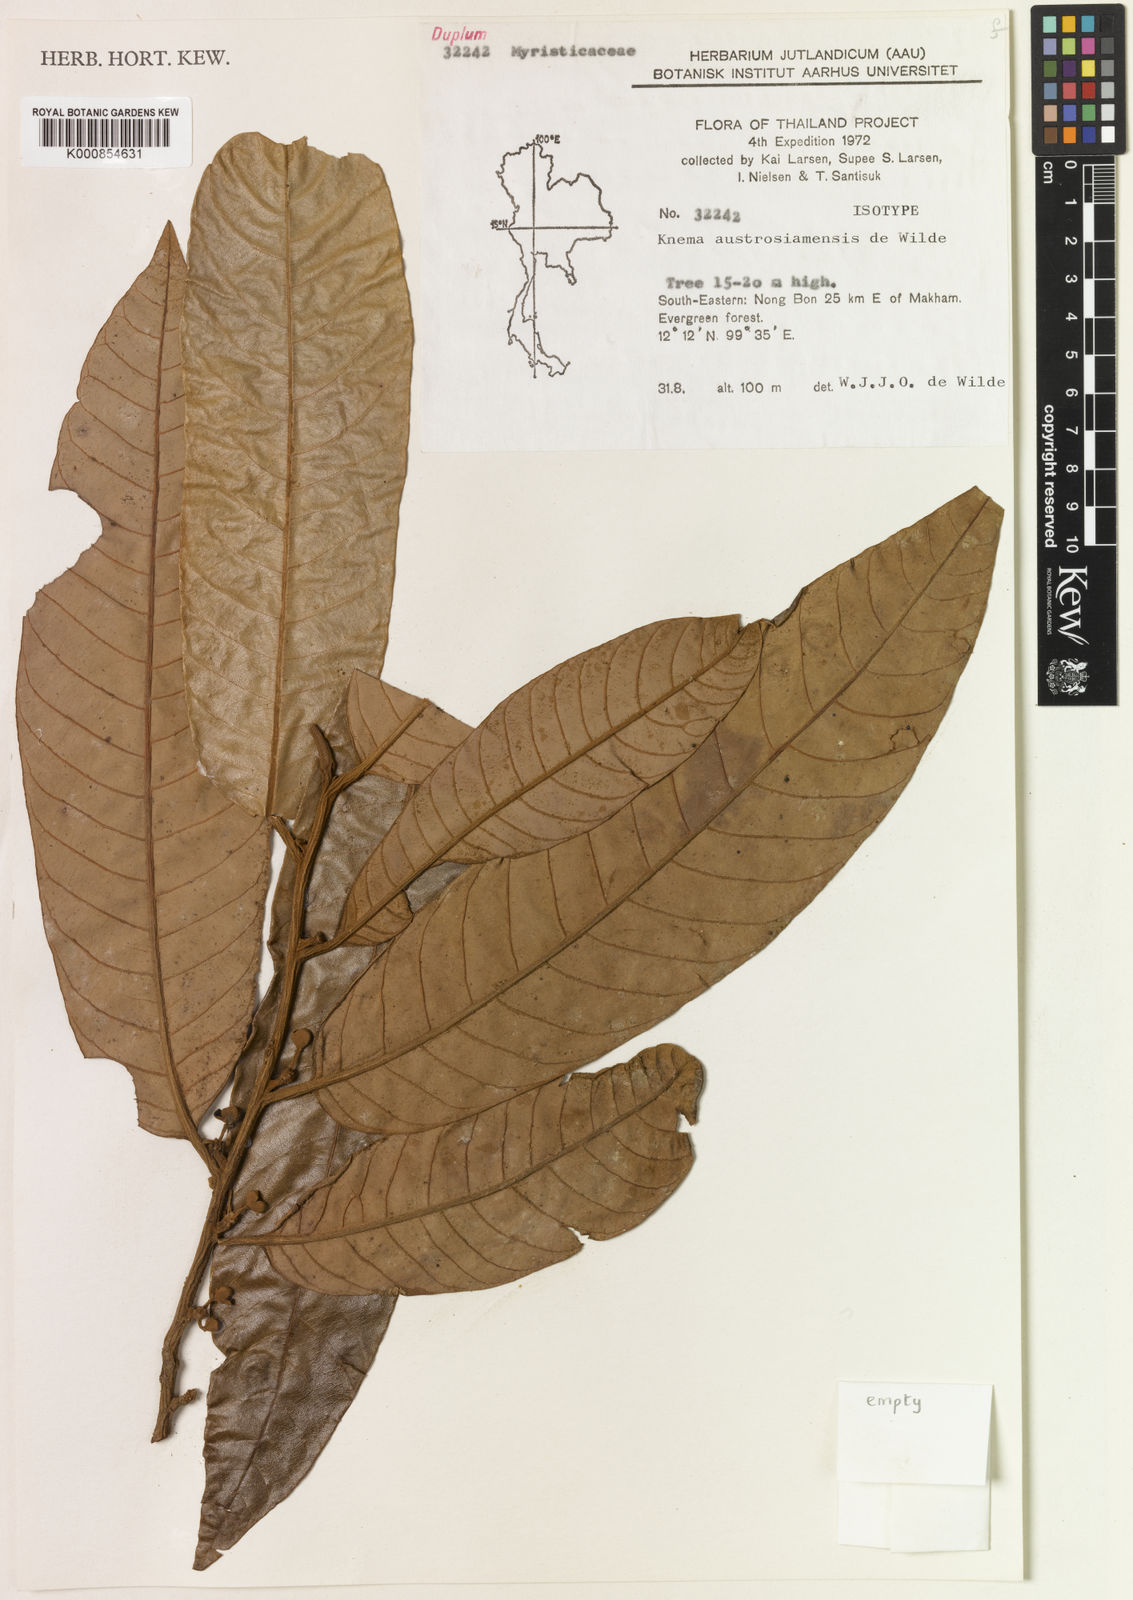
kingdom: Plantae
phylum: Tracheophyta
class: Magnoliopsida
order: Magnoliales
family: Myristicaceae
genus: Knema
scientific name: Knema austrosiamensis
